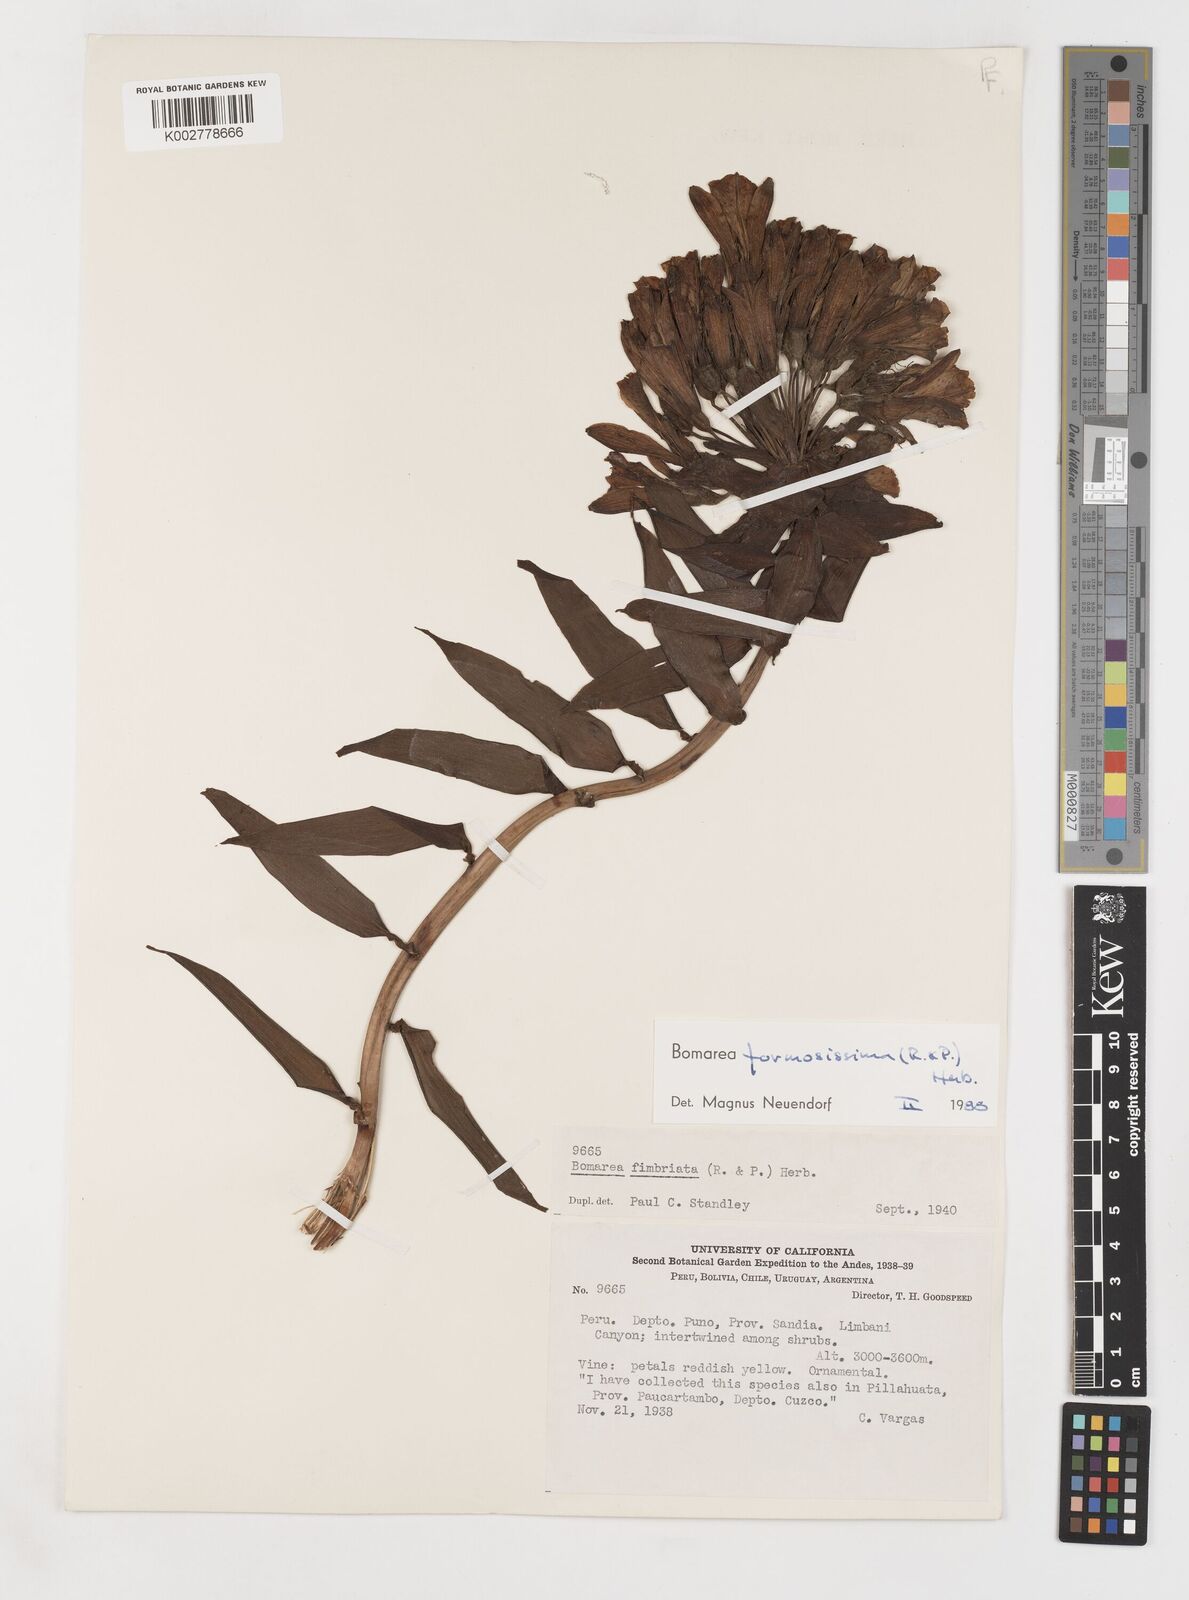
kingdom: Plantae
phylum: Tracheophyta
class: Liliopsida
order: Liliales
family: Alstroemeriaceae
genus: Bomarea
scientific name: Bomarea formosissima
